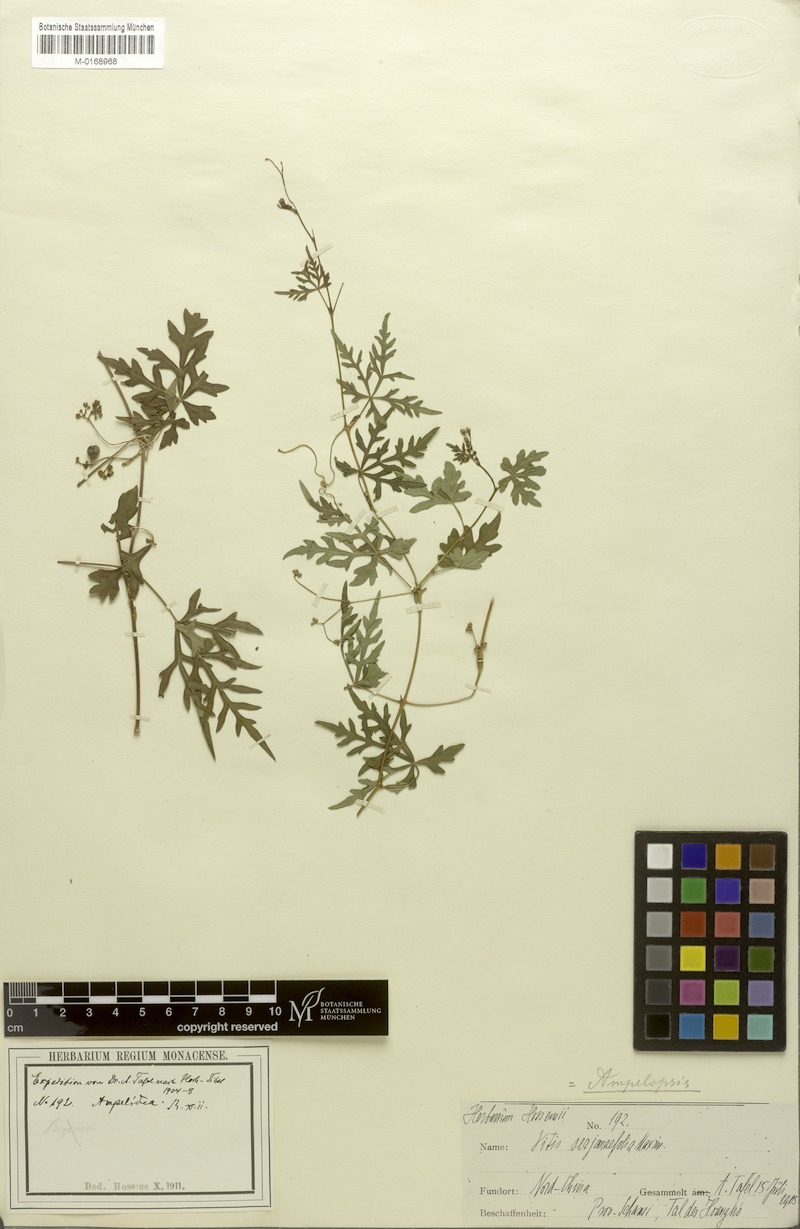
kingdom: Plantae
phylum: Tracheophyta
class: Magnoliopsida
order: Vitales
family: Vitaceae
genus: Ampelopsis
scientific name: Ampelopsis japonica
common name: Japanese peppervine
